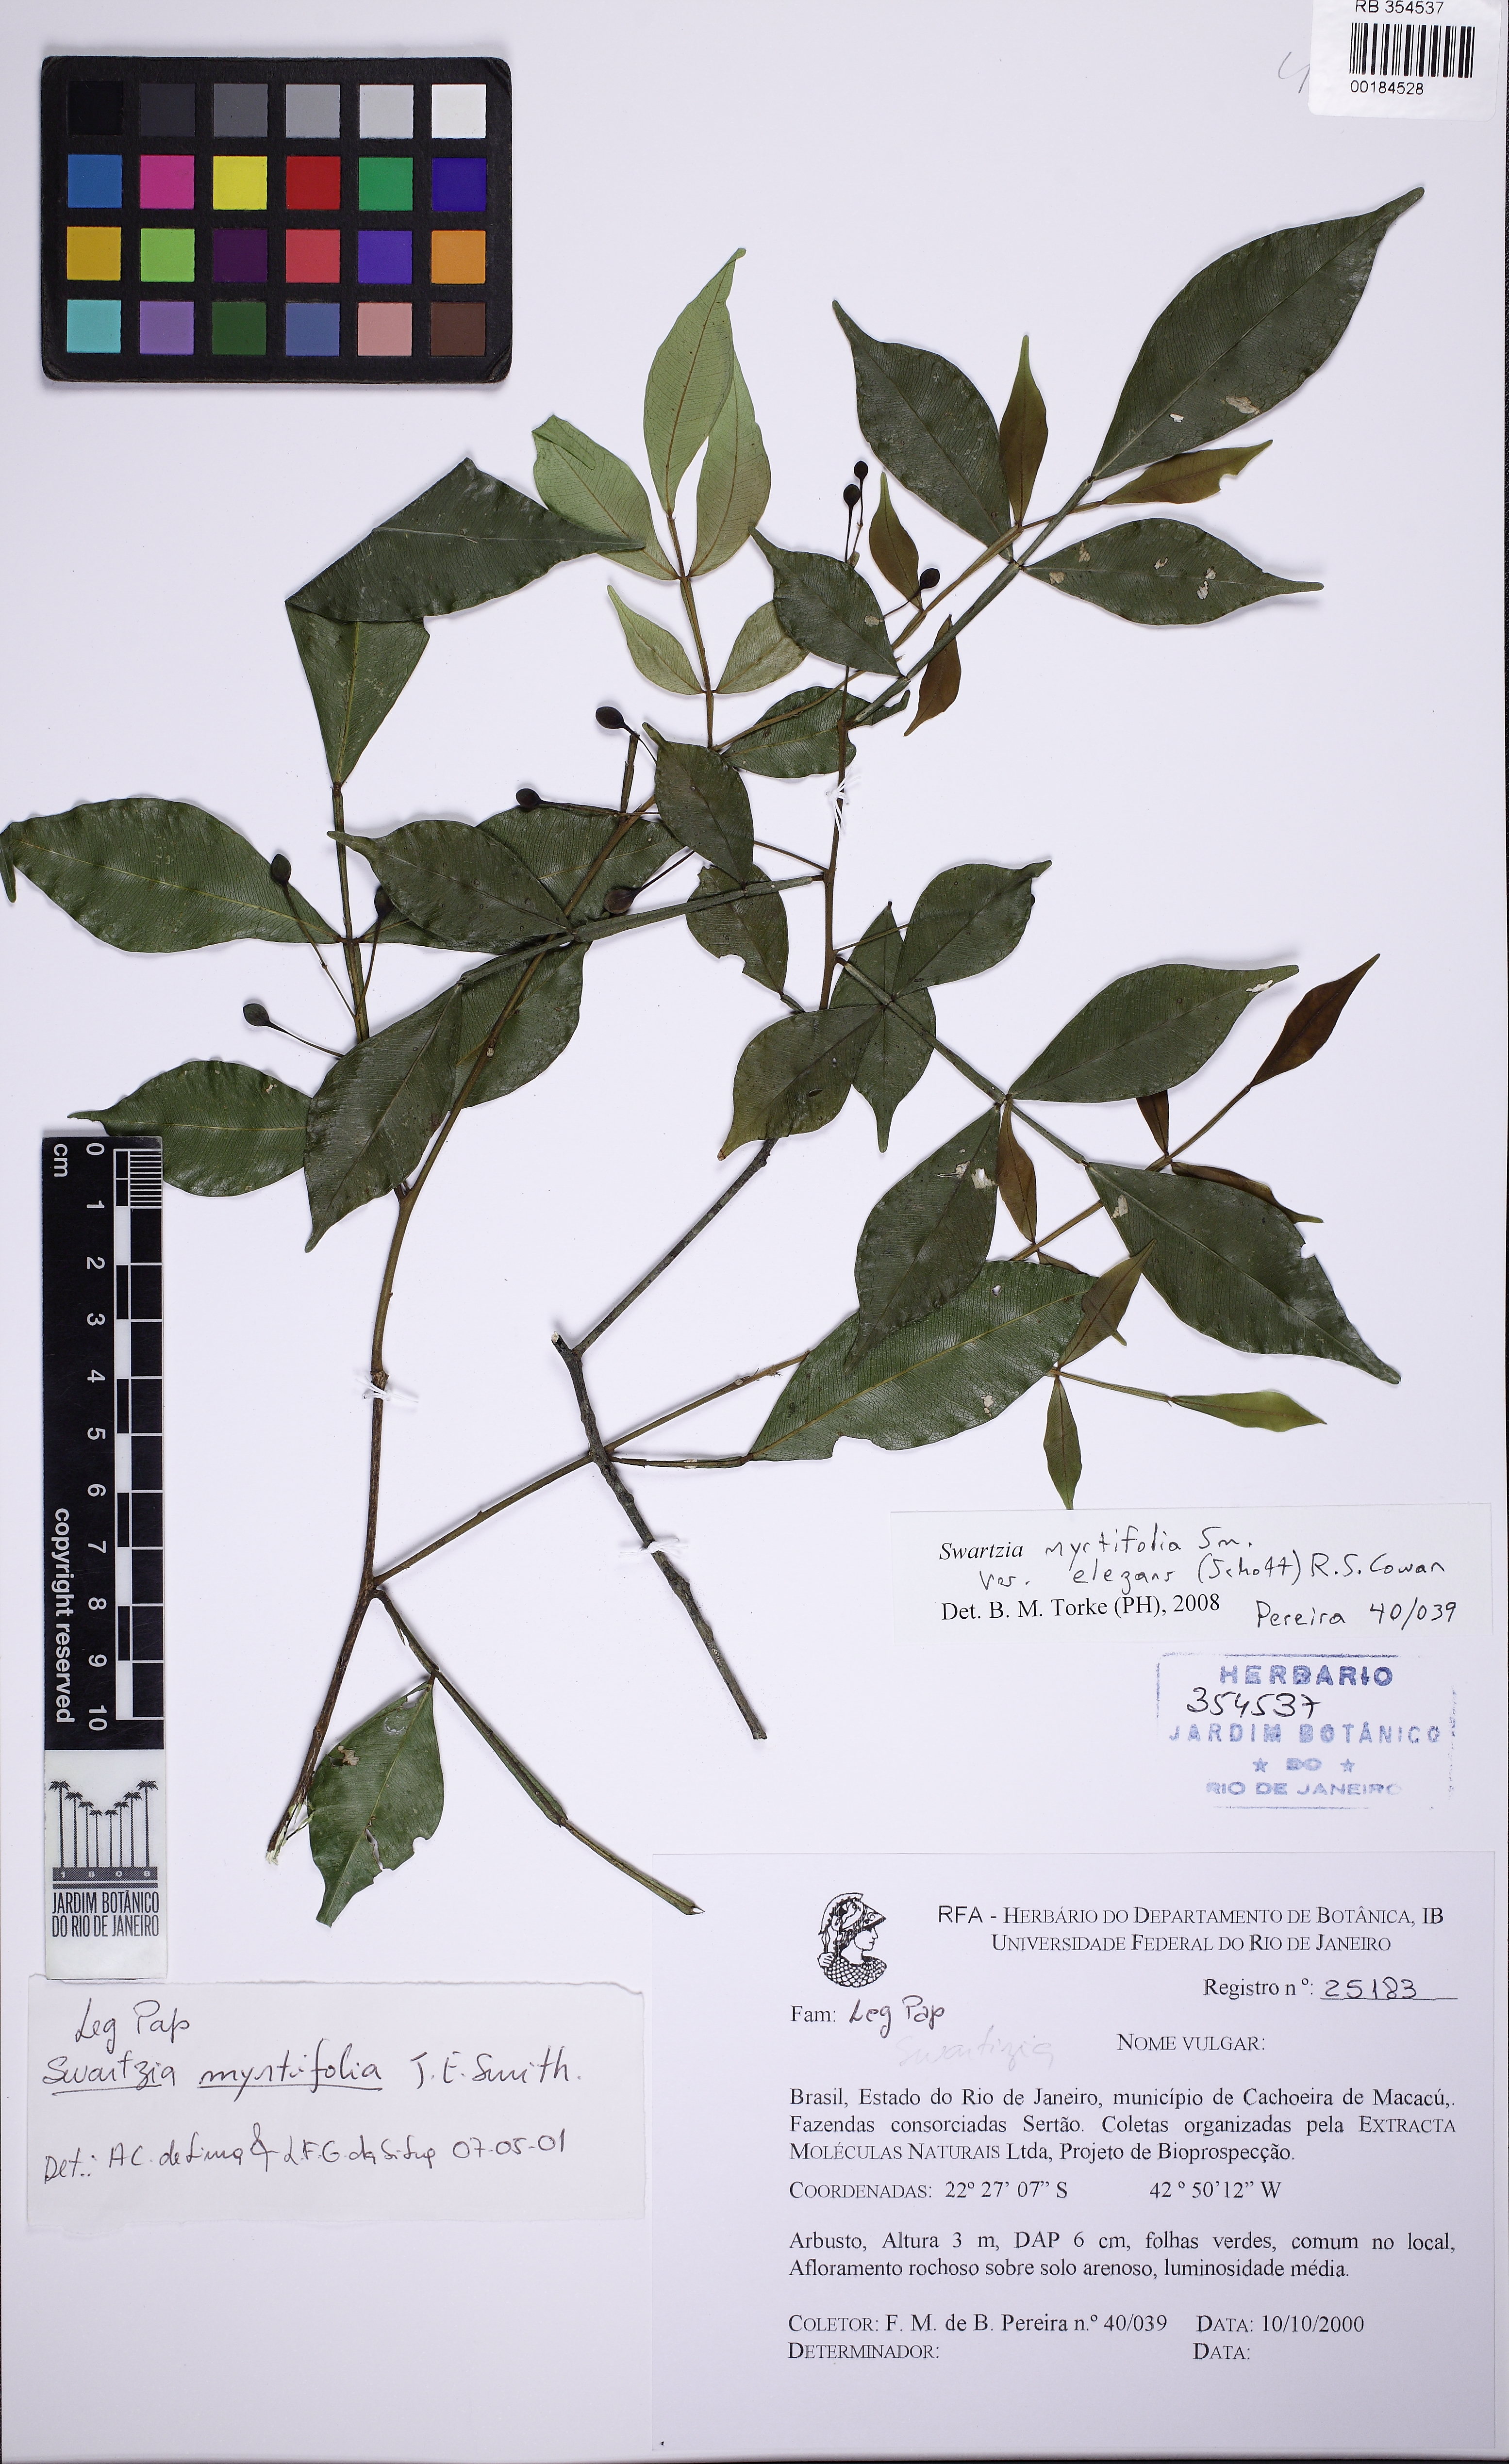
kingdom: Plantae
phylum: Tracheophyta
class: Magnoliopsida
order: Fabales
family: Fabaceae
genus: Swartzia
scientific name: Swartzia myrtifolia
